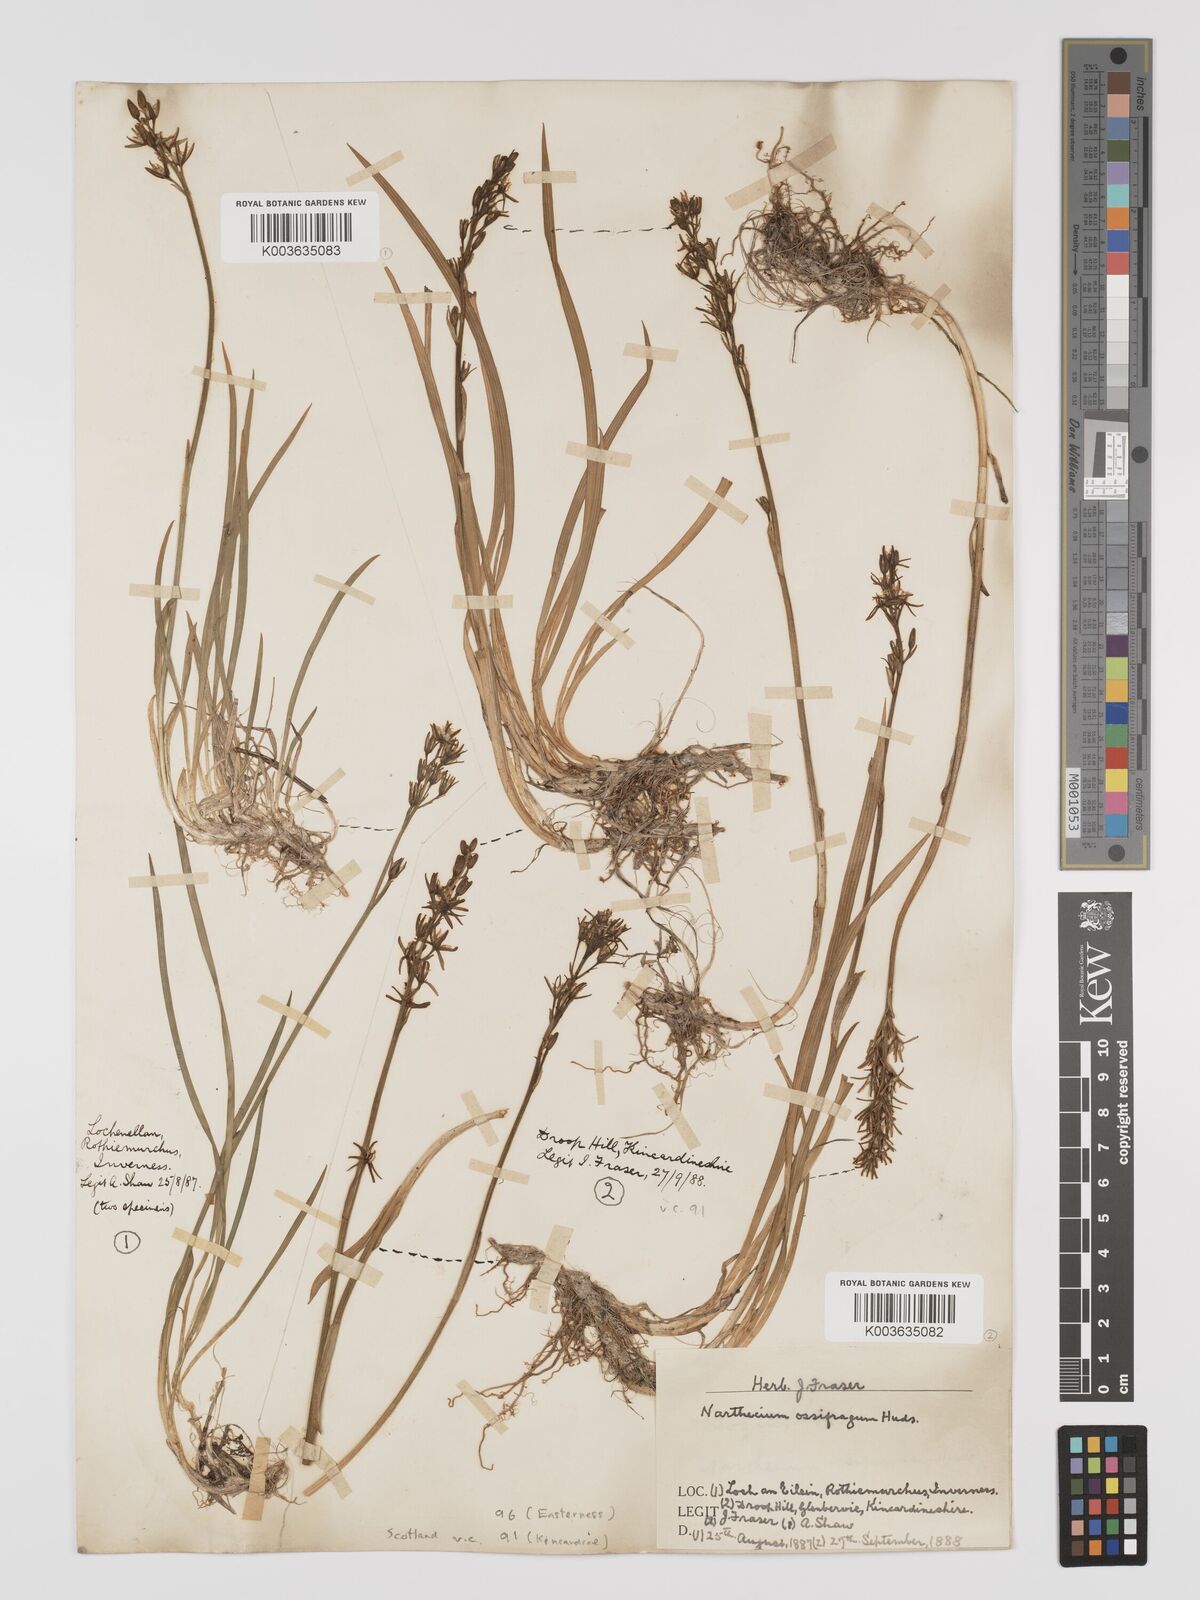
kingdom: Plantae
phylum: Tracheophyta
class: Liliopsida
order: Dioscoreales
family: Nartheciaceae
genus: Narthecium
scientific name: Narthecium
